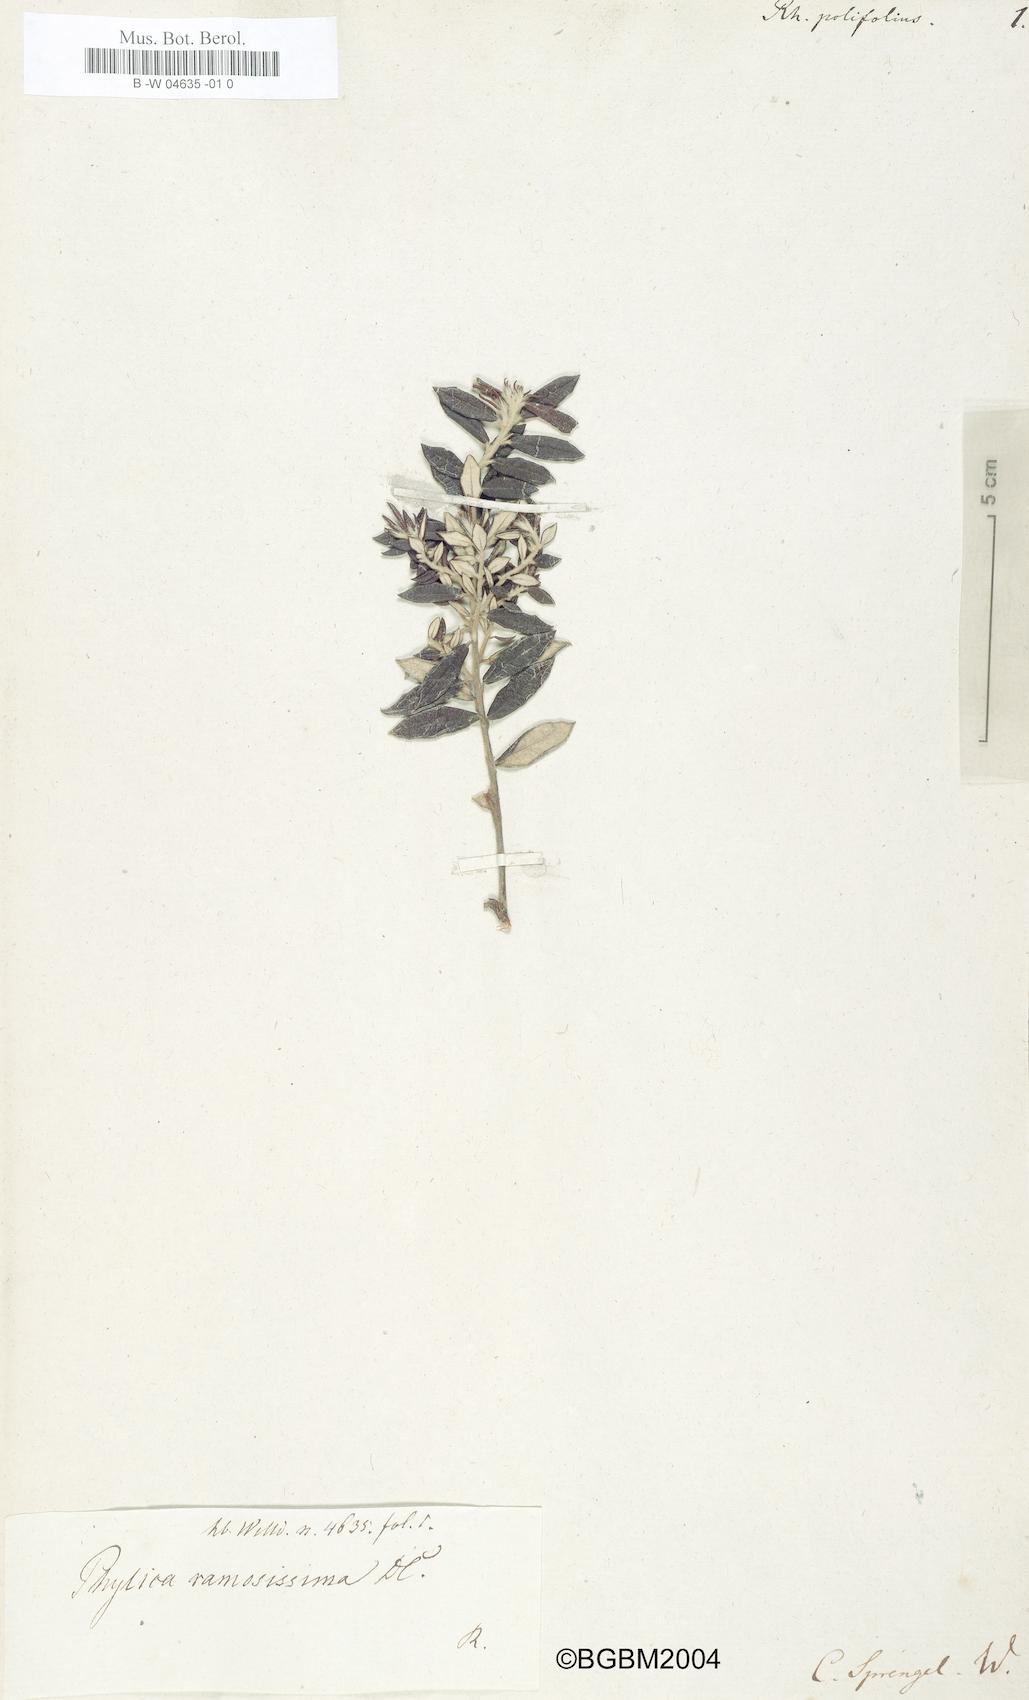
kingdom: Plantae
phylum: Tracheophyta
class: Magnoliopsida
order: Rosales
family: Rhamnaceae
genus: Phylica
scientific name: Phylica polifolia
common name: Rosemary
